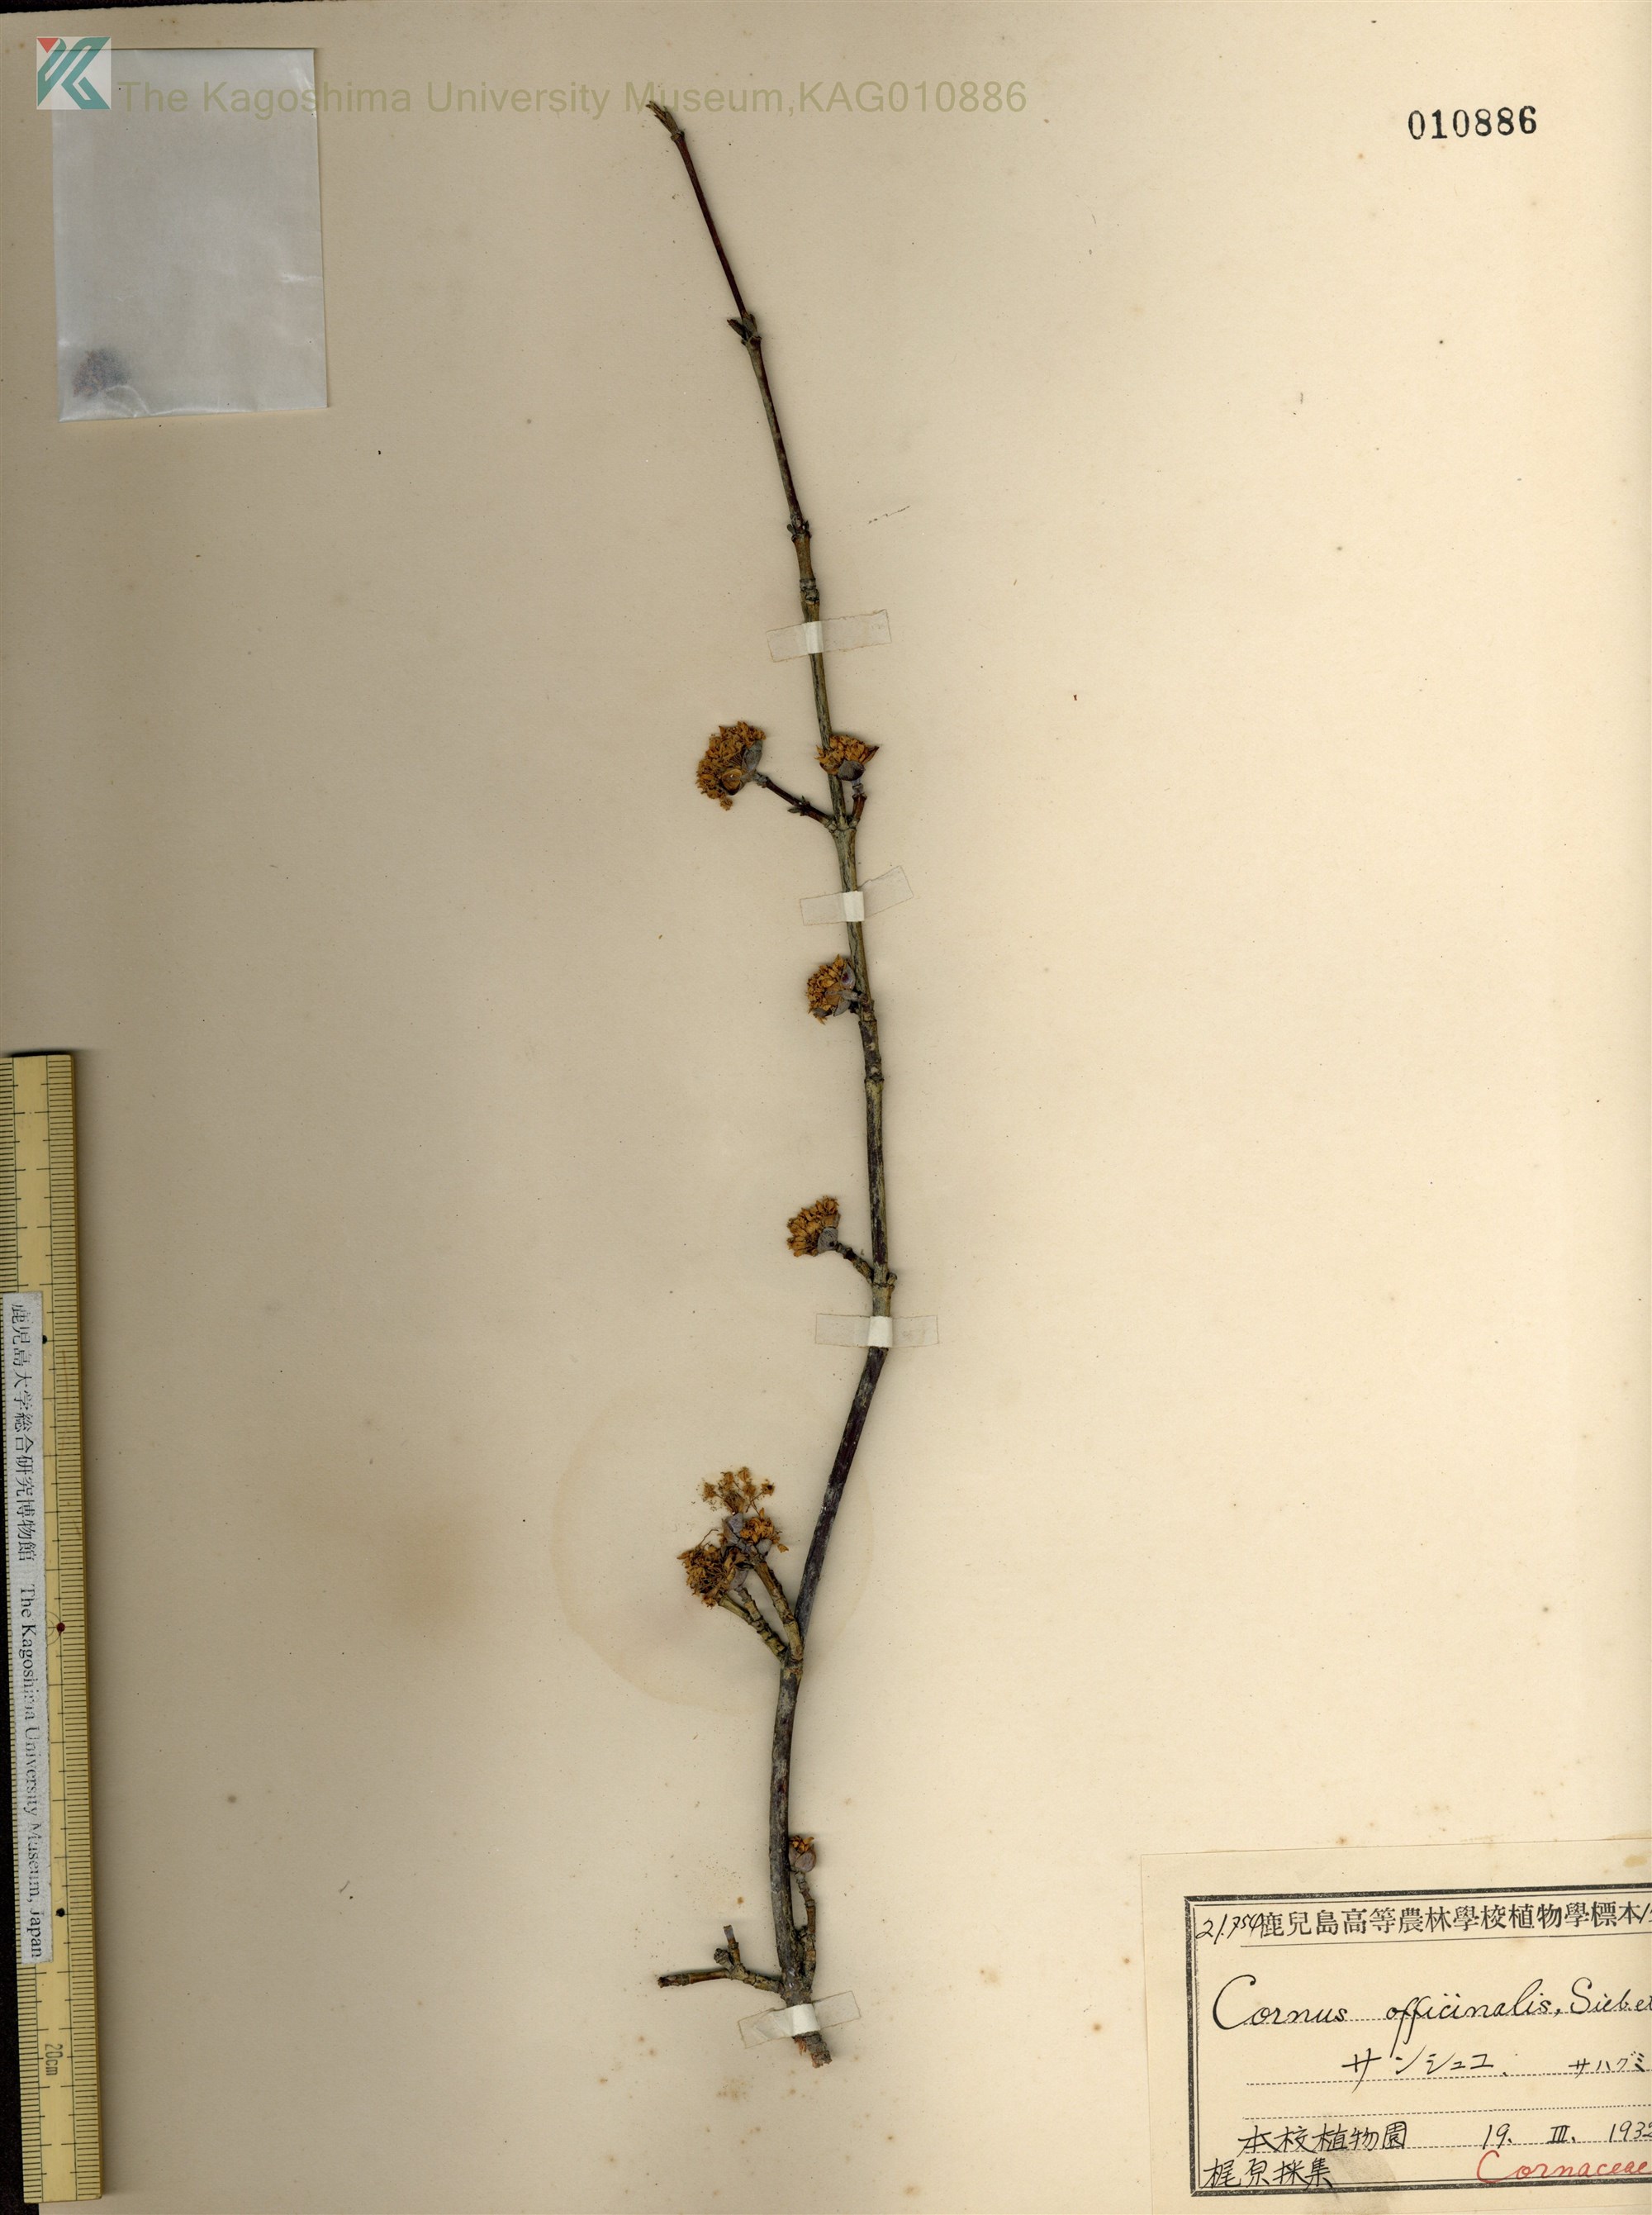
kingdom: Plantae
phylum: Tracheophyta
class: Magnoliopsida
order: Cornales
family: Cornaceae
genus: Cornus
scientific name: Cornus officinalis
